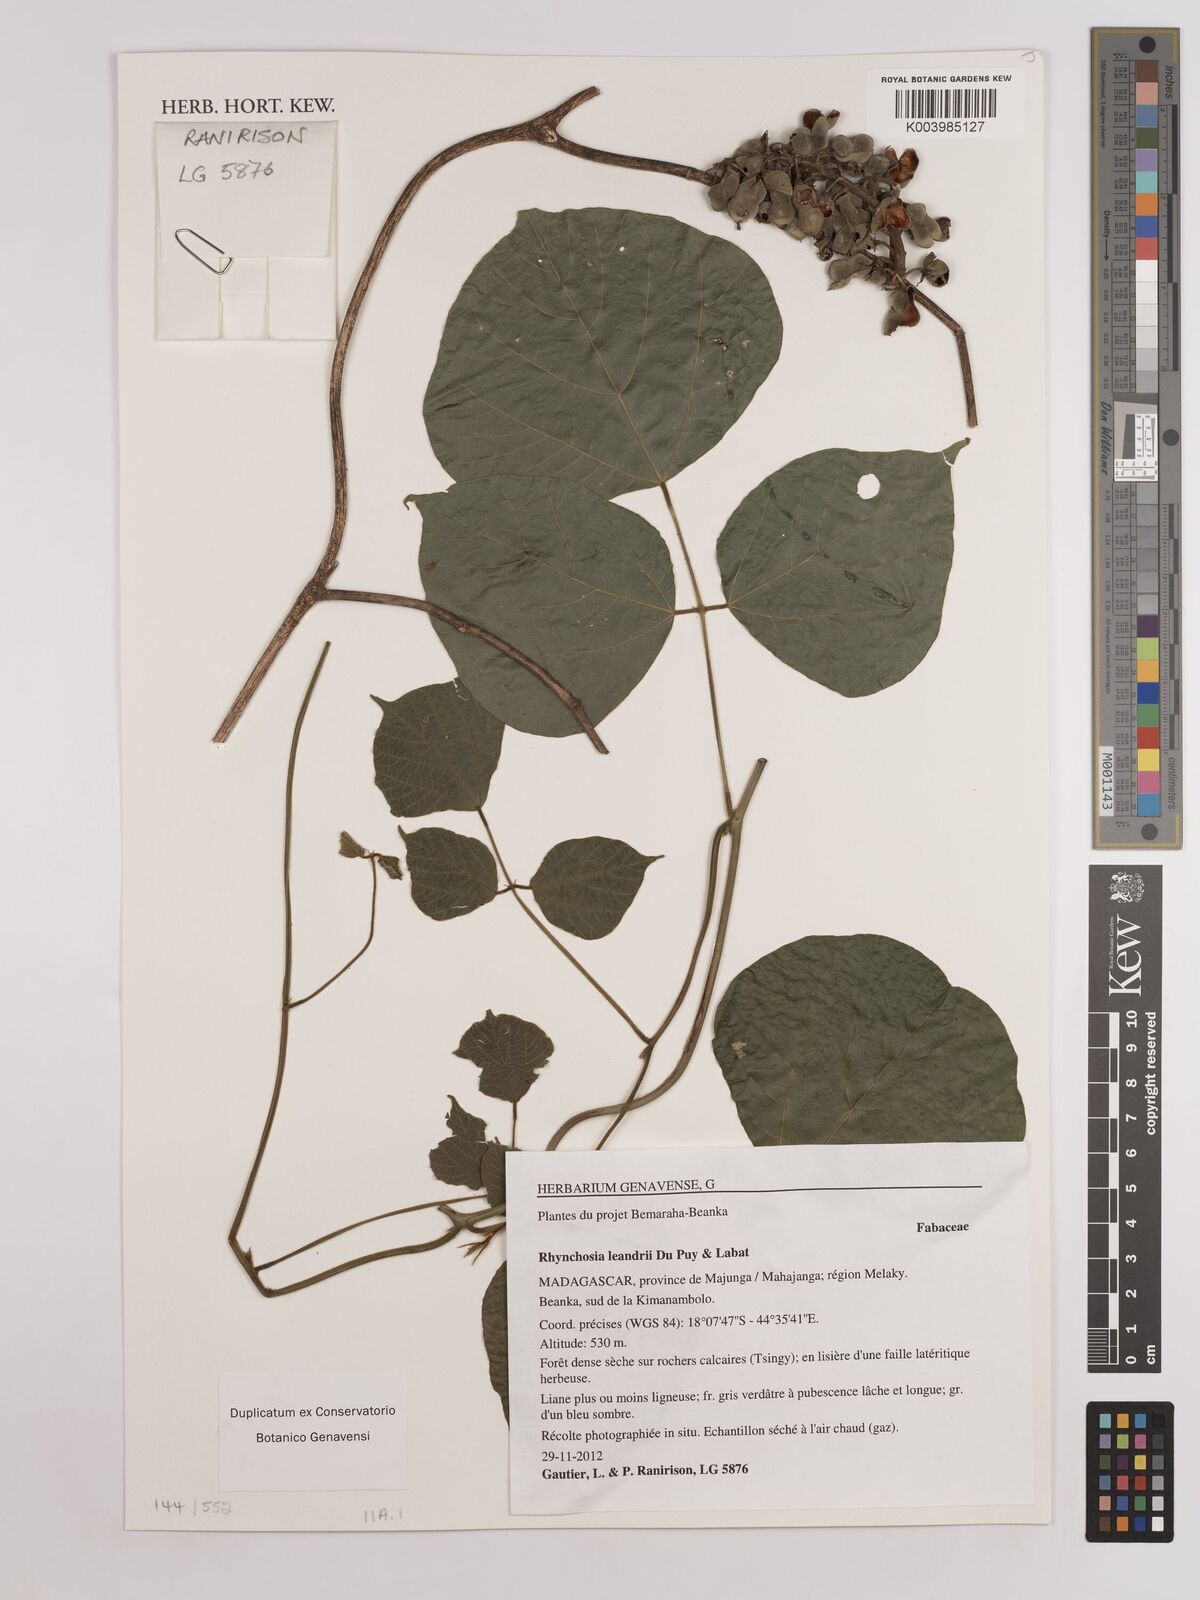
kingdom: Plantae
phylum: Tracheophyta
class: Magnoliopsida
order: Fabales
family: Fabaceae
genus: Rhynchosia
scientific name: Rhynchosia leandrii
